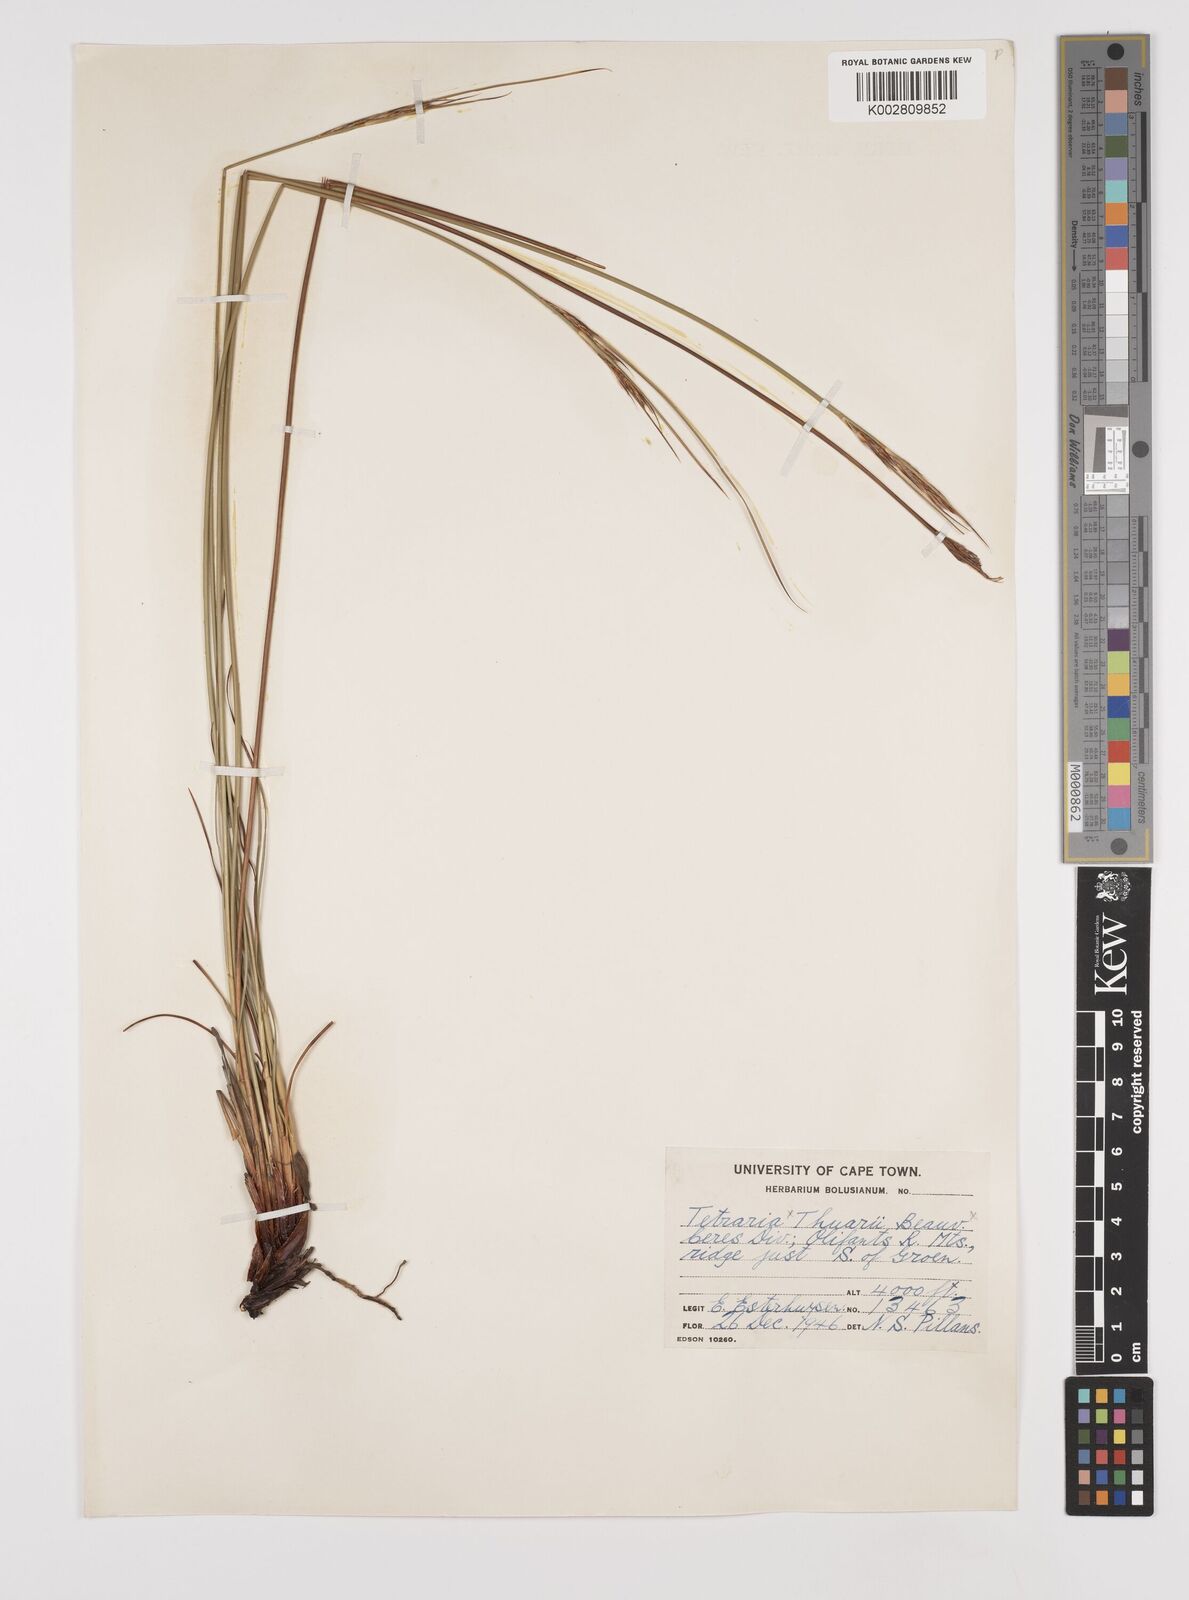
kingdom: Plantae
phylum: Tracheophyta
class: Liliopsida
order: Poales
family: Cyperaceae
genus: Schoenus
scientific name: Schoenus pseudoloreus
